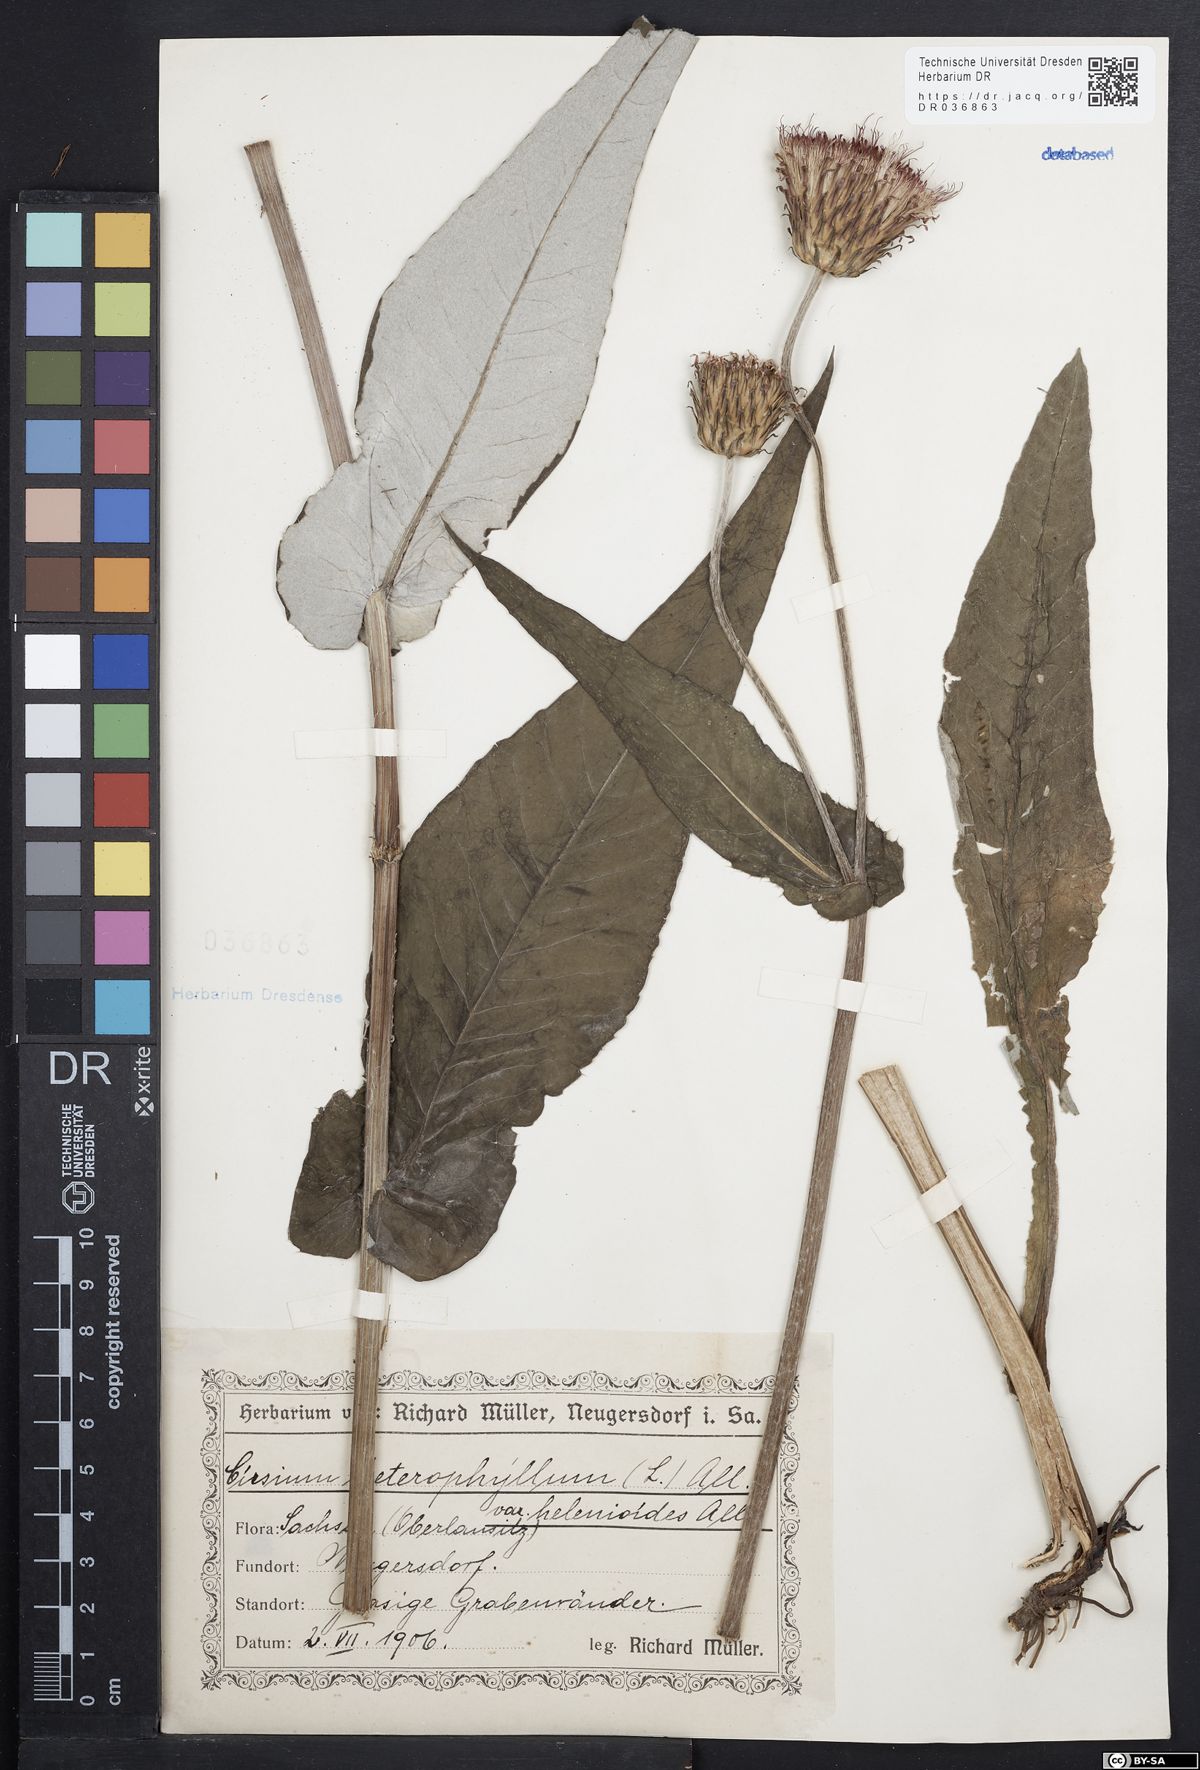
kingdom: Plantae
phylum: Tracheophyta
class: Magnoliopsida
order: Asterales
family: Asteraceae
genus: Cirsium
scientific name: Cirsium helenioides
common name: Melancholy thistle
